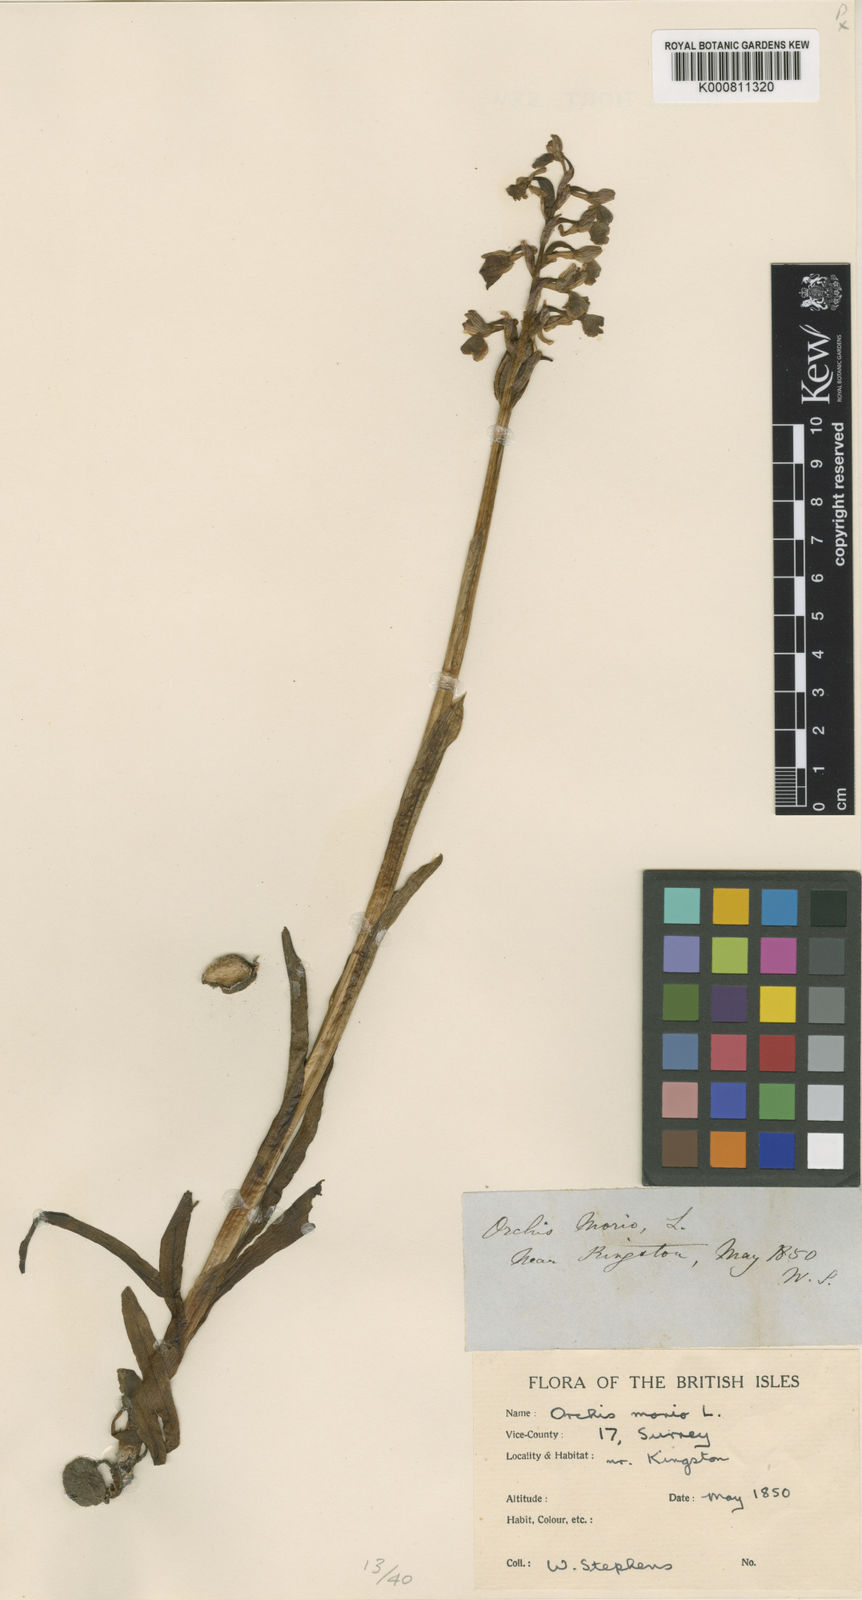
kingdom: Plantae
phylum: Tracheophyta
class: Liliopsida
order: Asparagales
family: Orchidaceae
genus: Anacamptis
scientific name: Anacamptis morio
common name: Green-winged orchid
